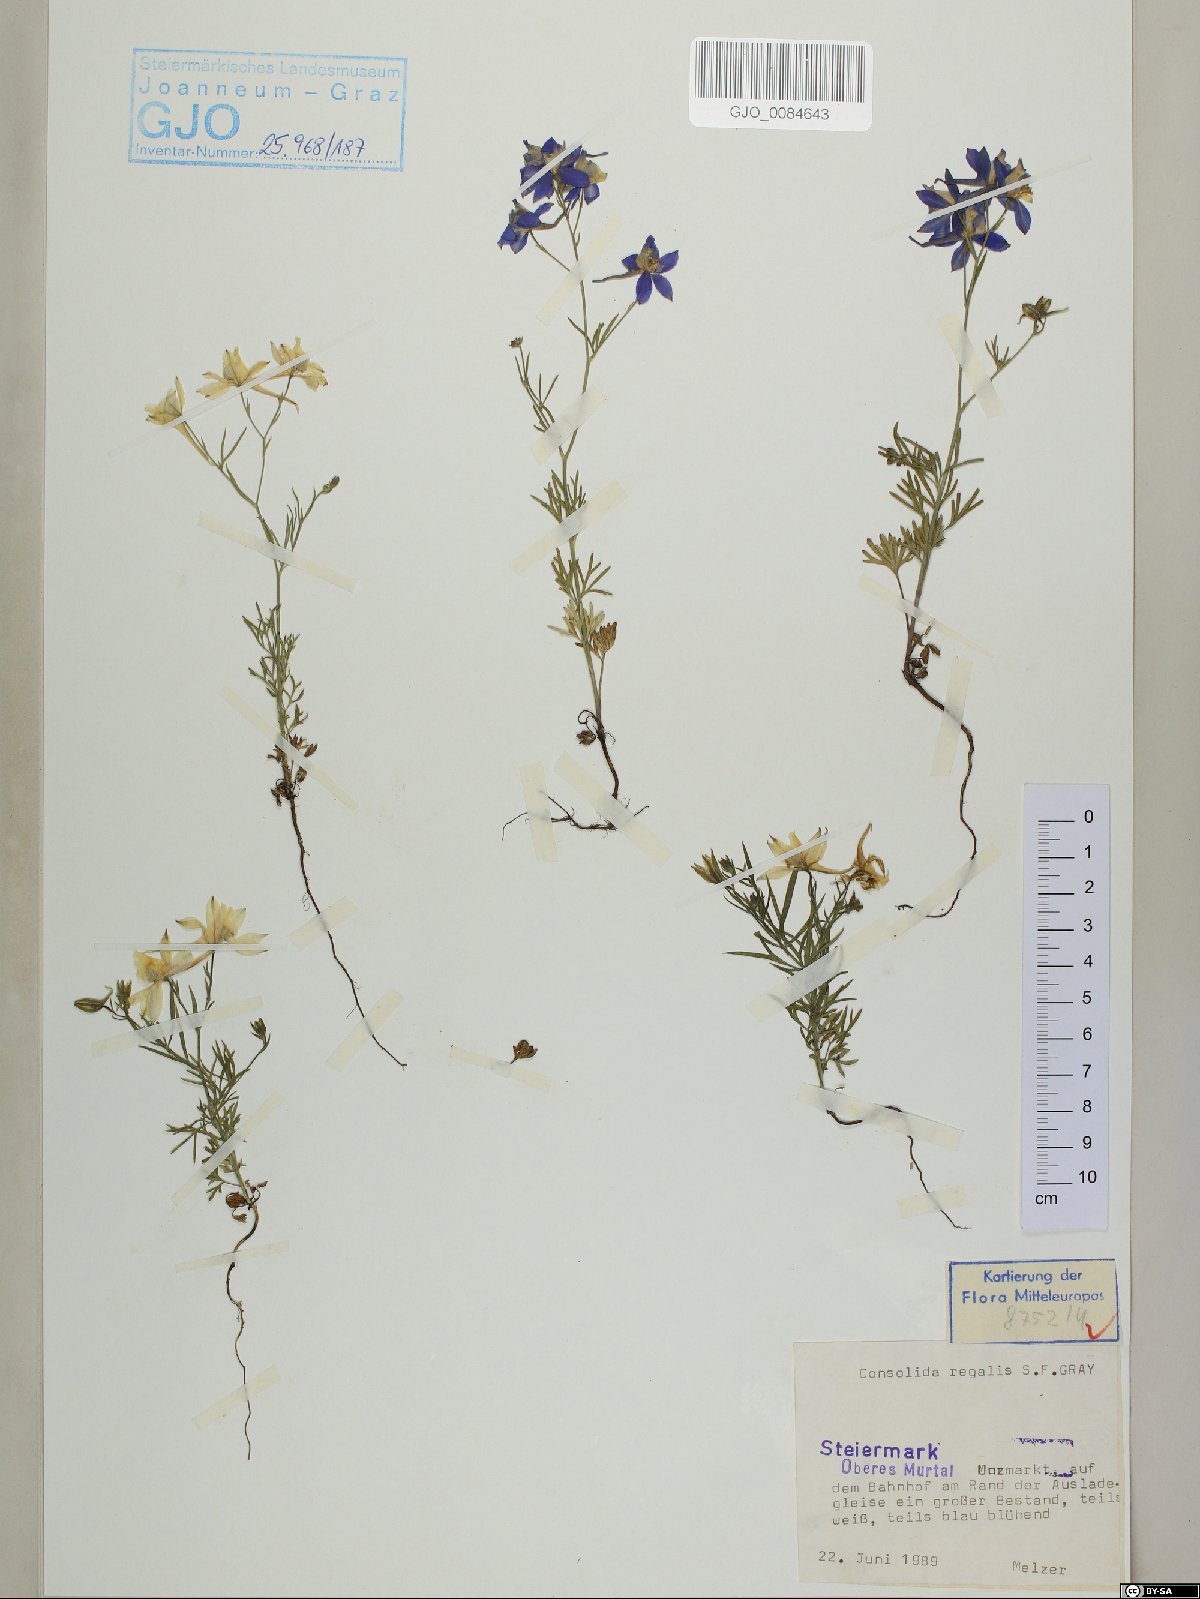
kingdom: Plantae
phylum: Tracheophyta
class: Magnoliopsida
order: Ranunculales
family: Ranunculaceae
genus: Delphinium
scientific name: Delphinium consolida
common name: Branching larkspur
